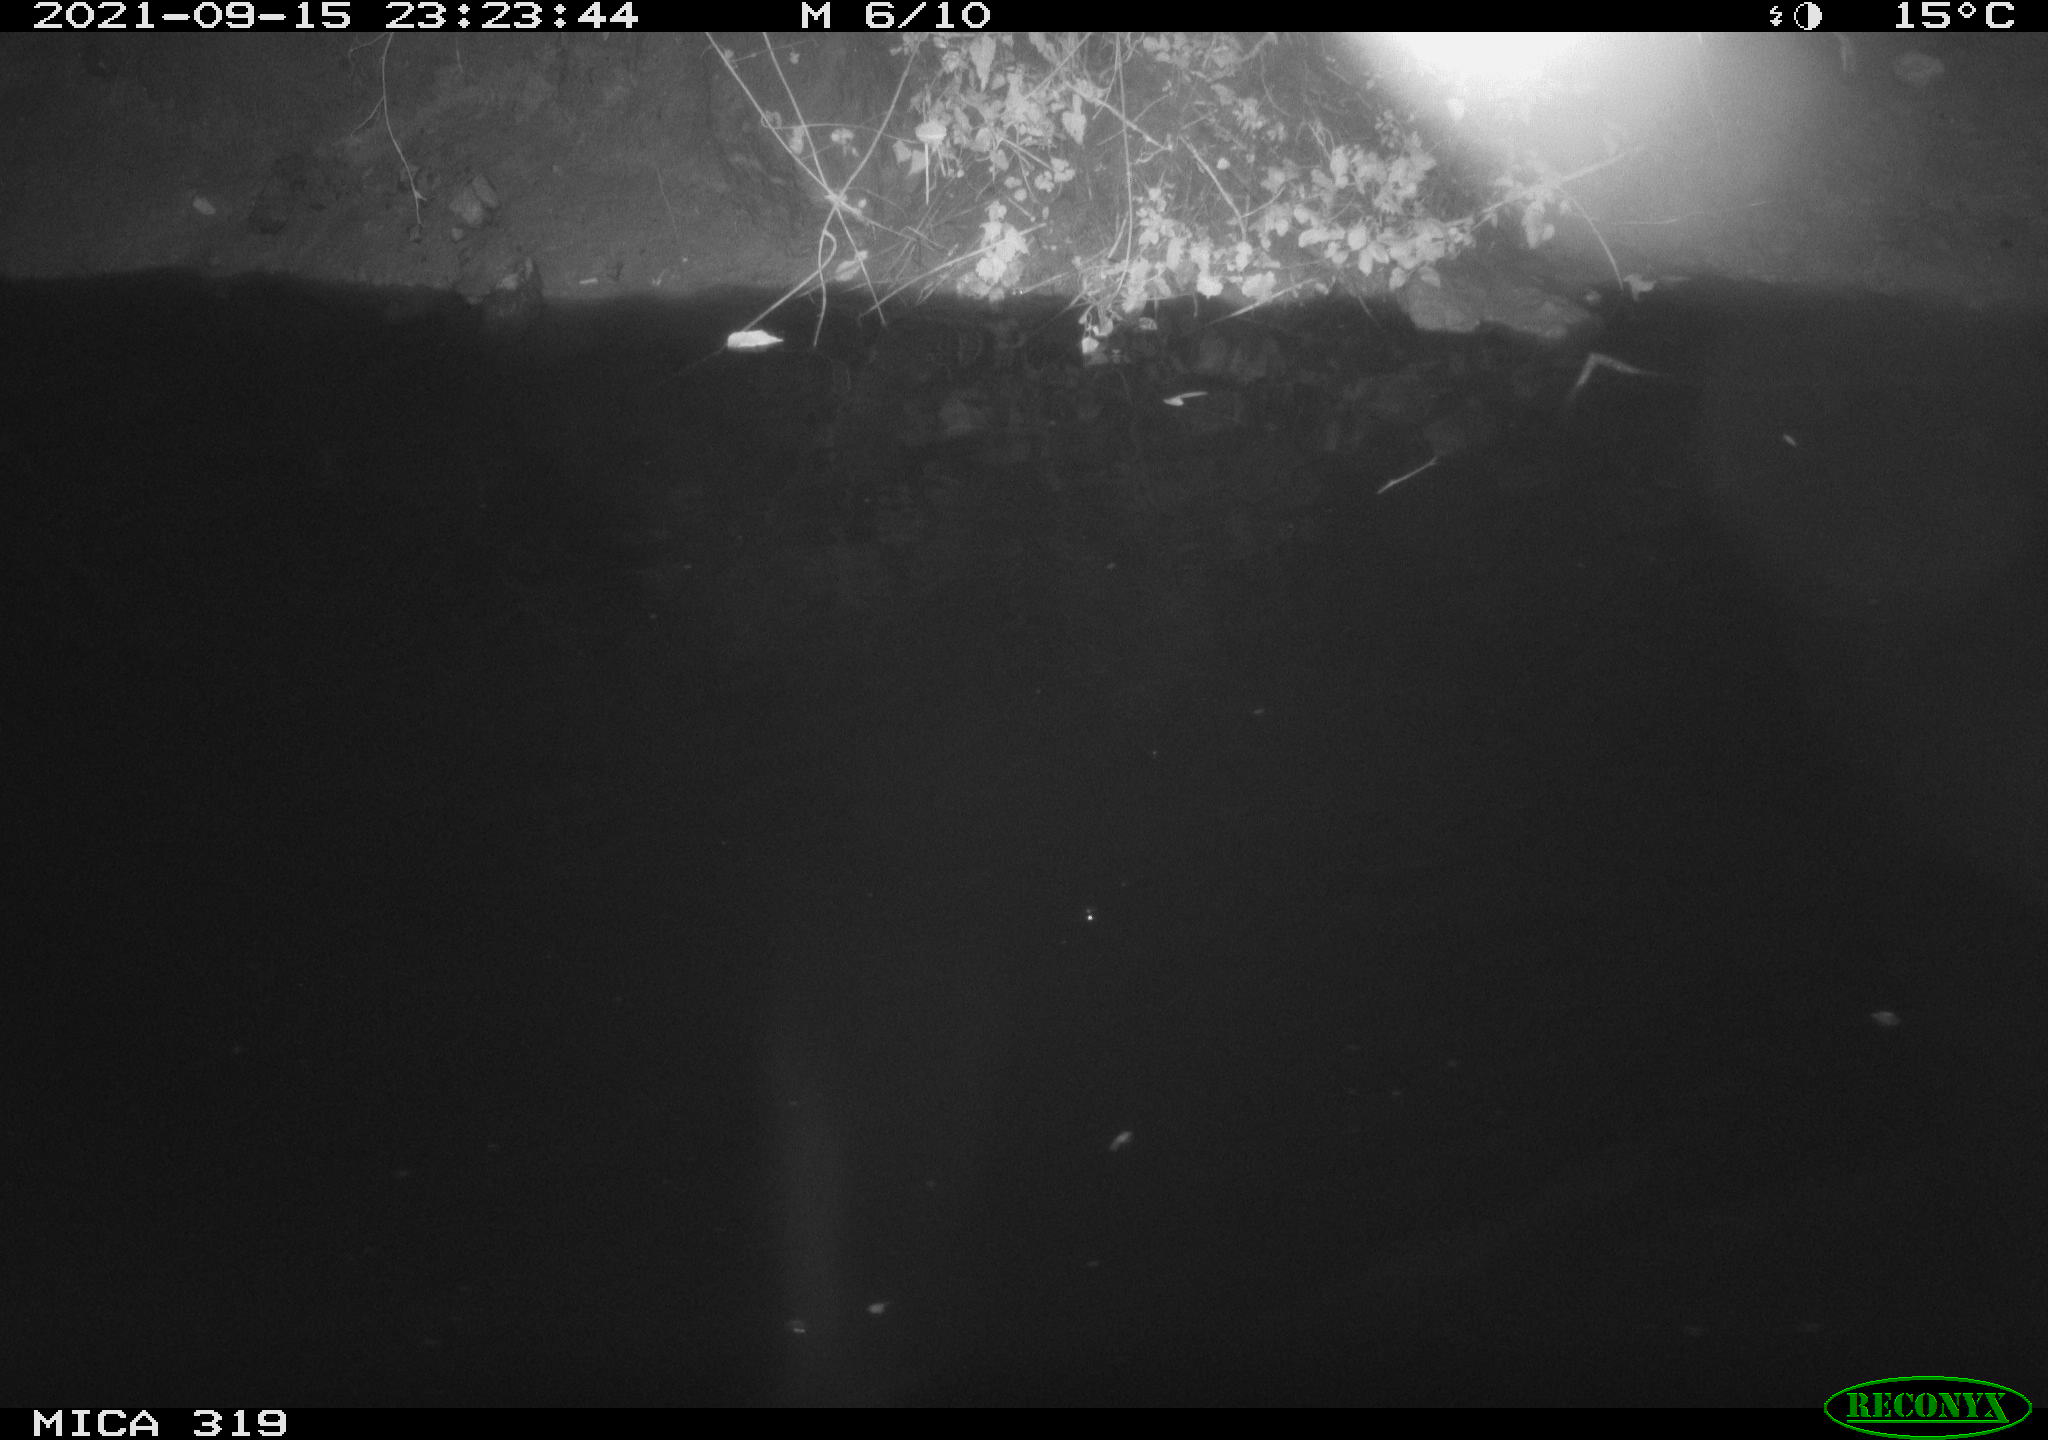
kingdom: Animalia
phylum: Chordata
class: Aves
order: Anseriformes
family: Anatidae
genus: Anas
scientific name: Anas platyrhynchos
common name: Mallard
